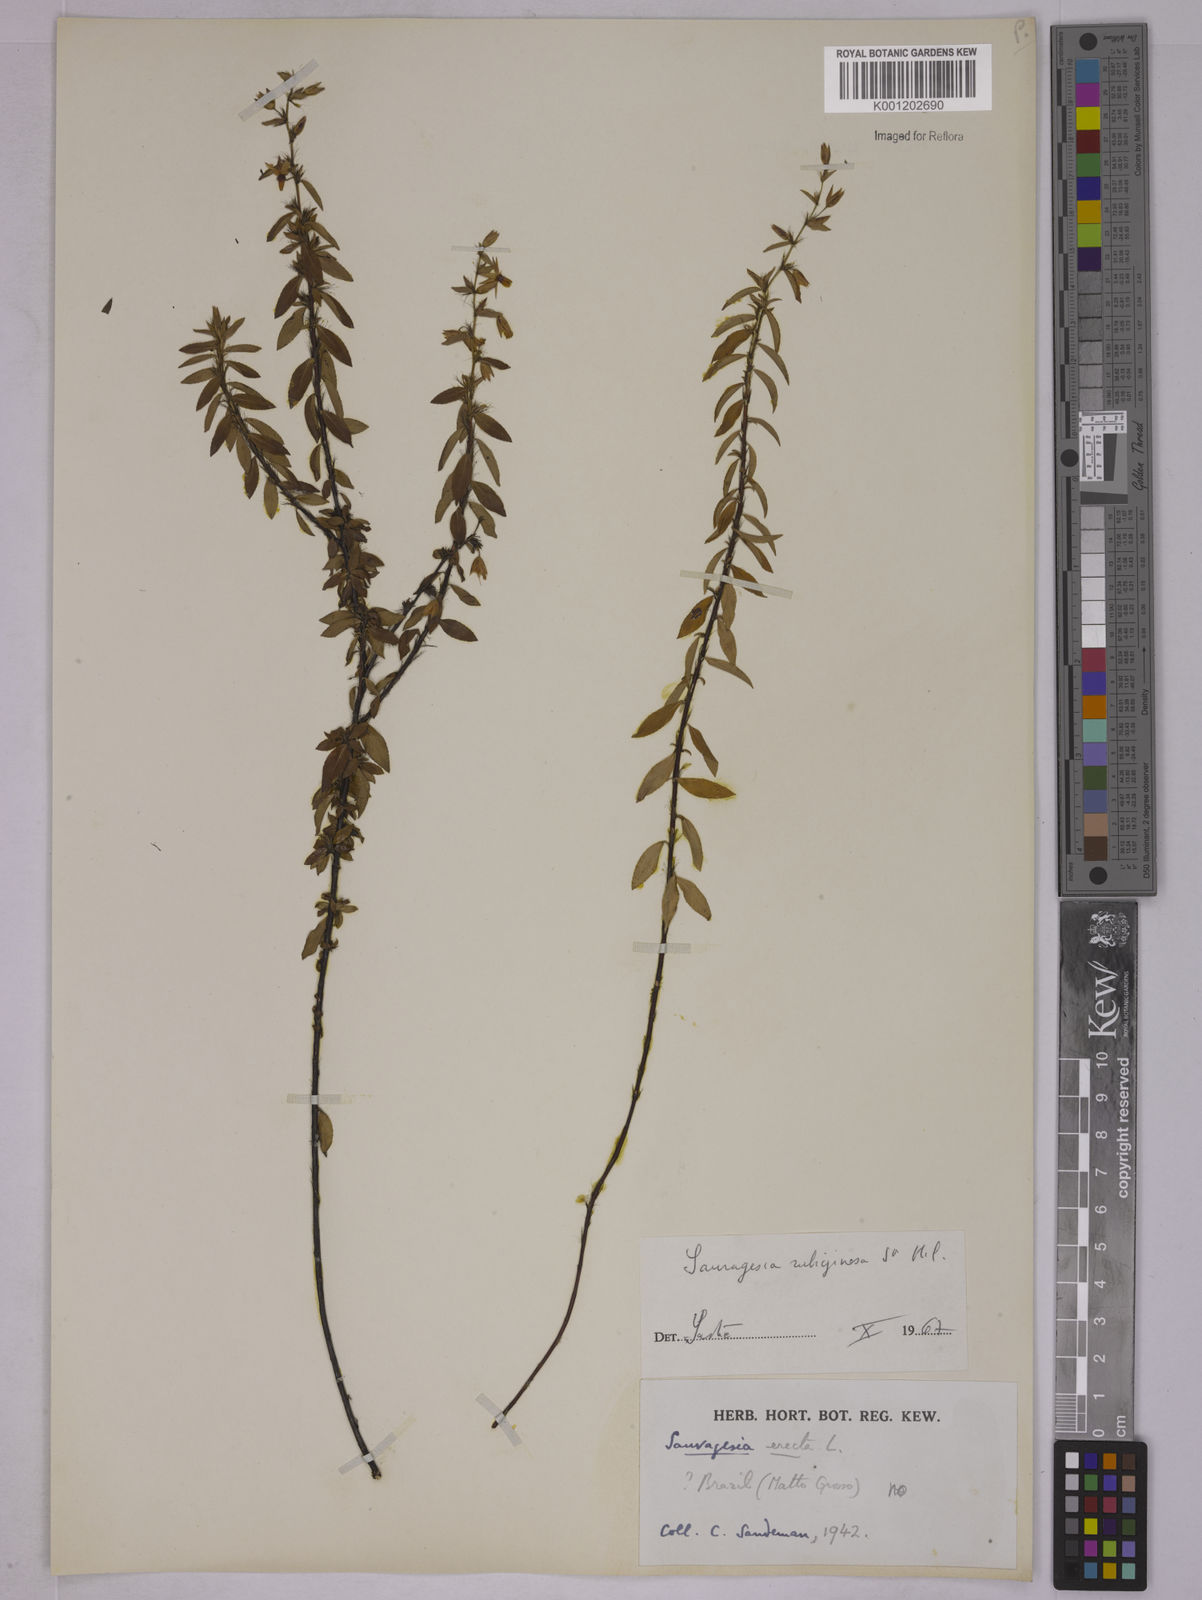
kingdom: Plantae
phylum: Tracheophyta
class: Magnoliopsida
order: Malpighiales
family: Ochnaceae
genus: Sauvagesia
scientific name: Sauvagesia erecta
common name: Creole tea
